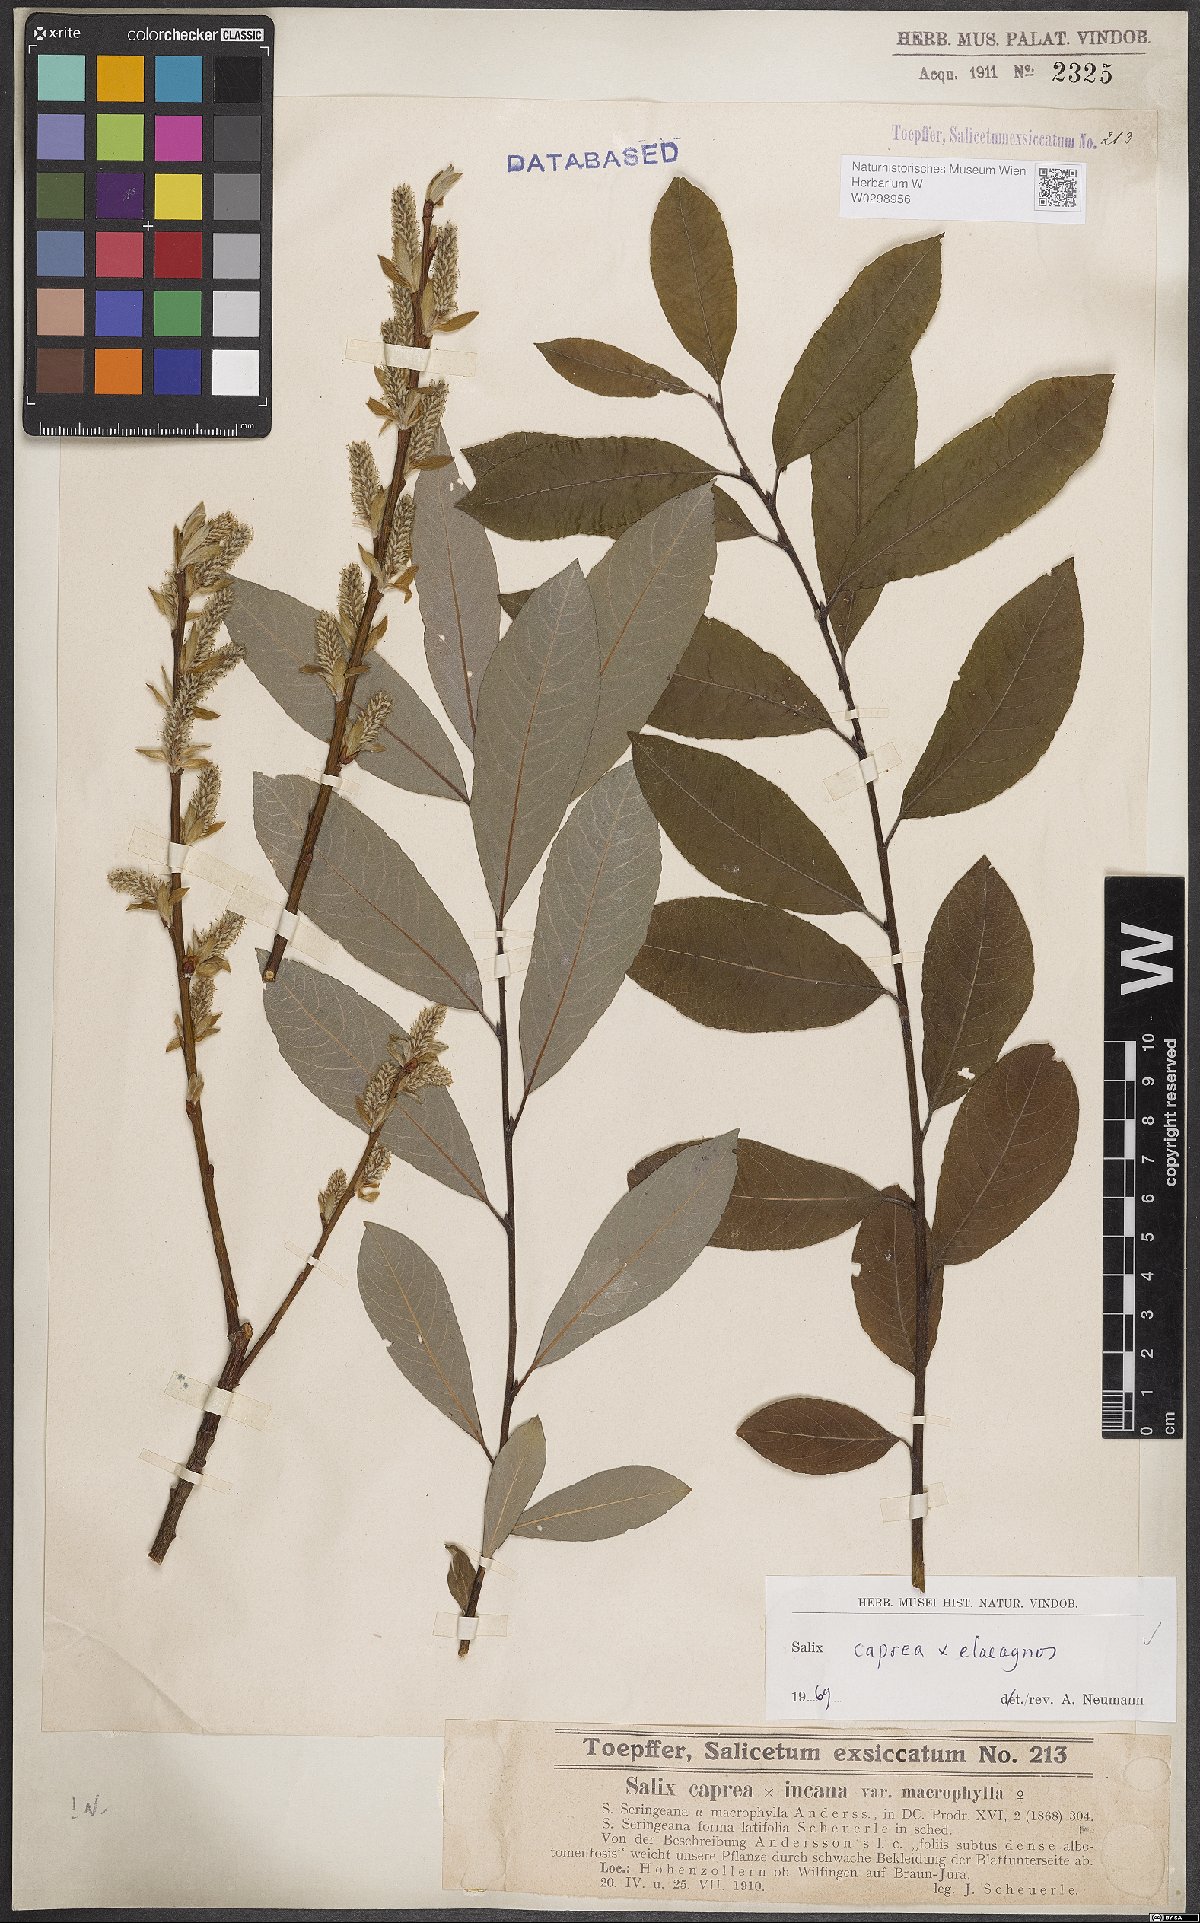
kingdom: Plantae
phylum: Tracheophyta
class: Magnoliopsida
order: Malpighiales
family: Salicaceae
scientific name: Salicaceae
